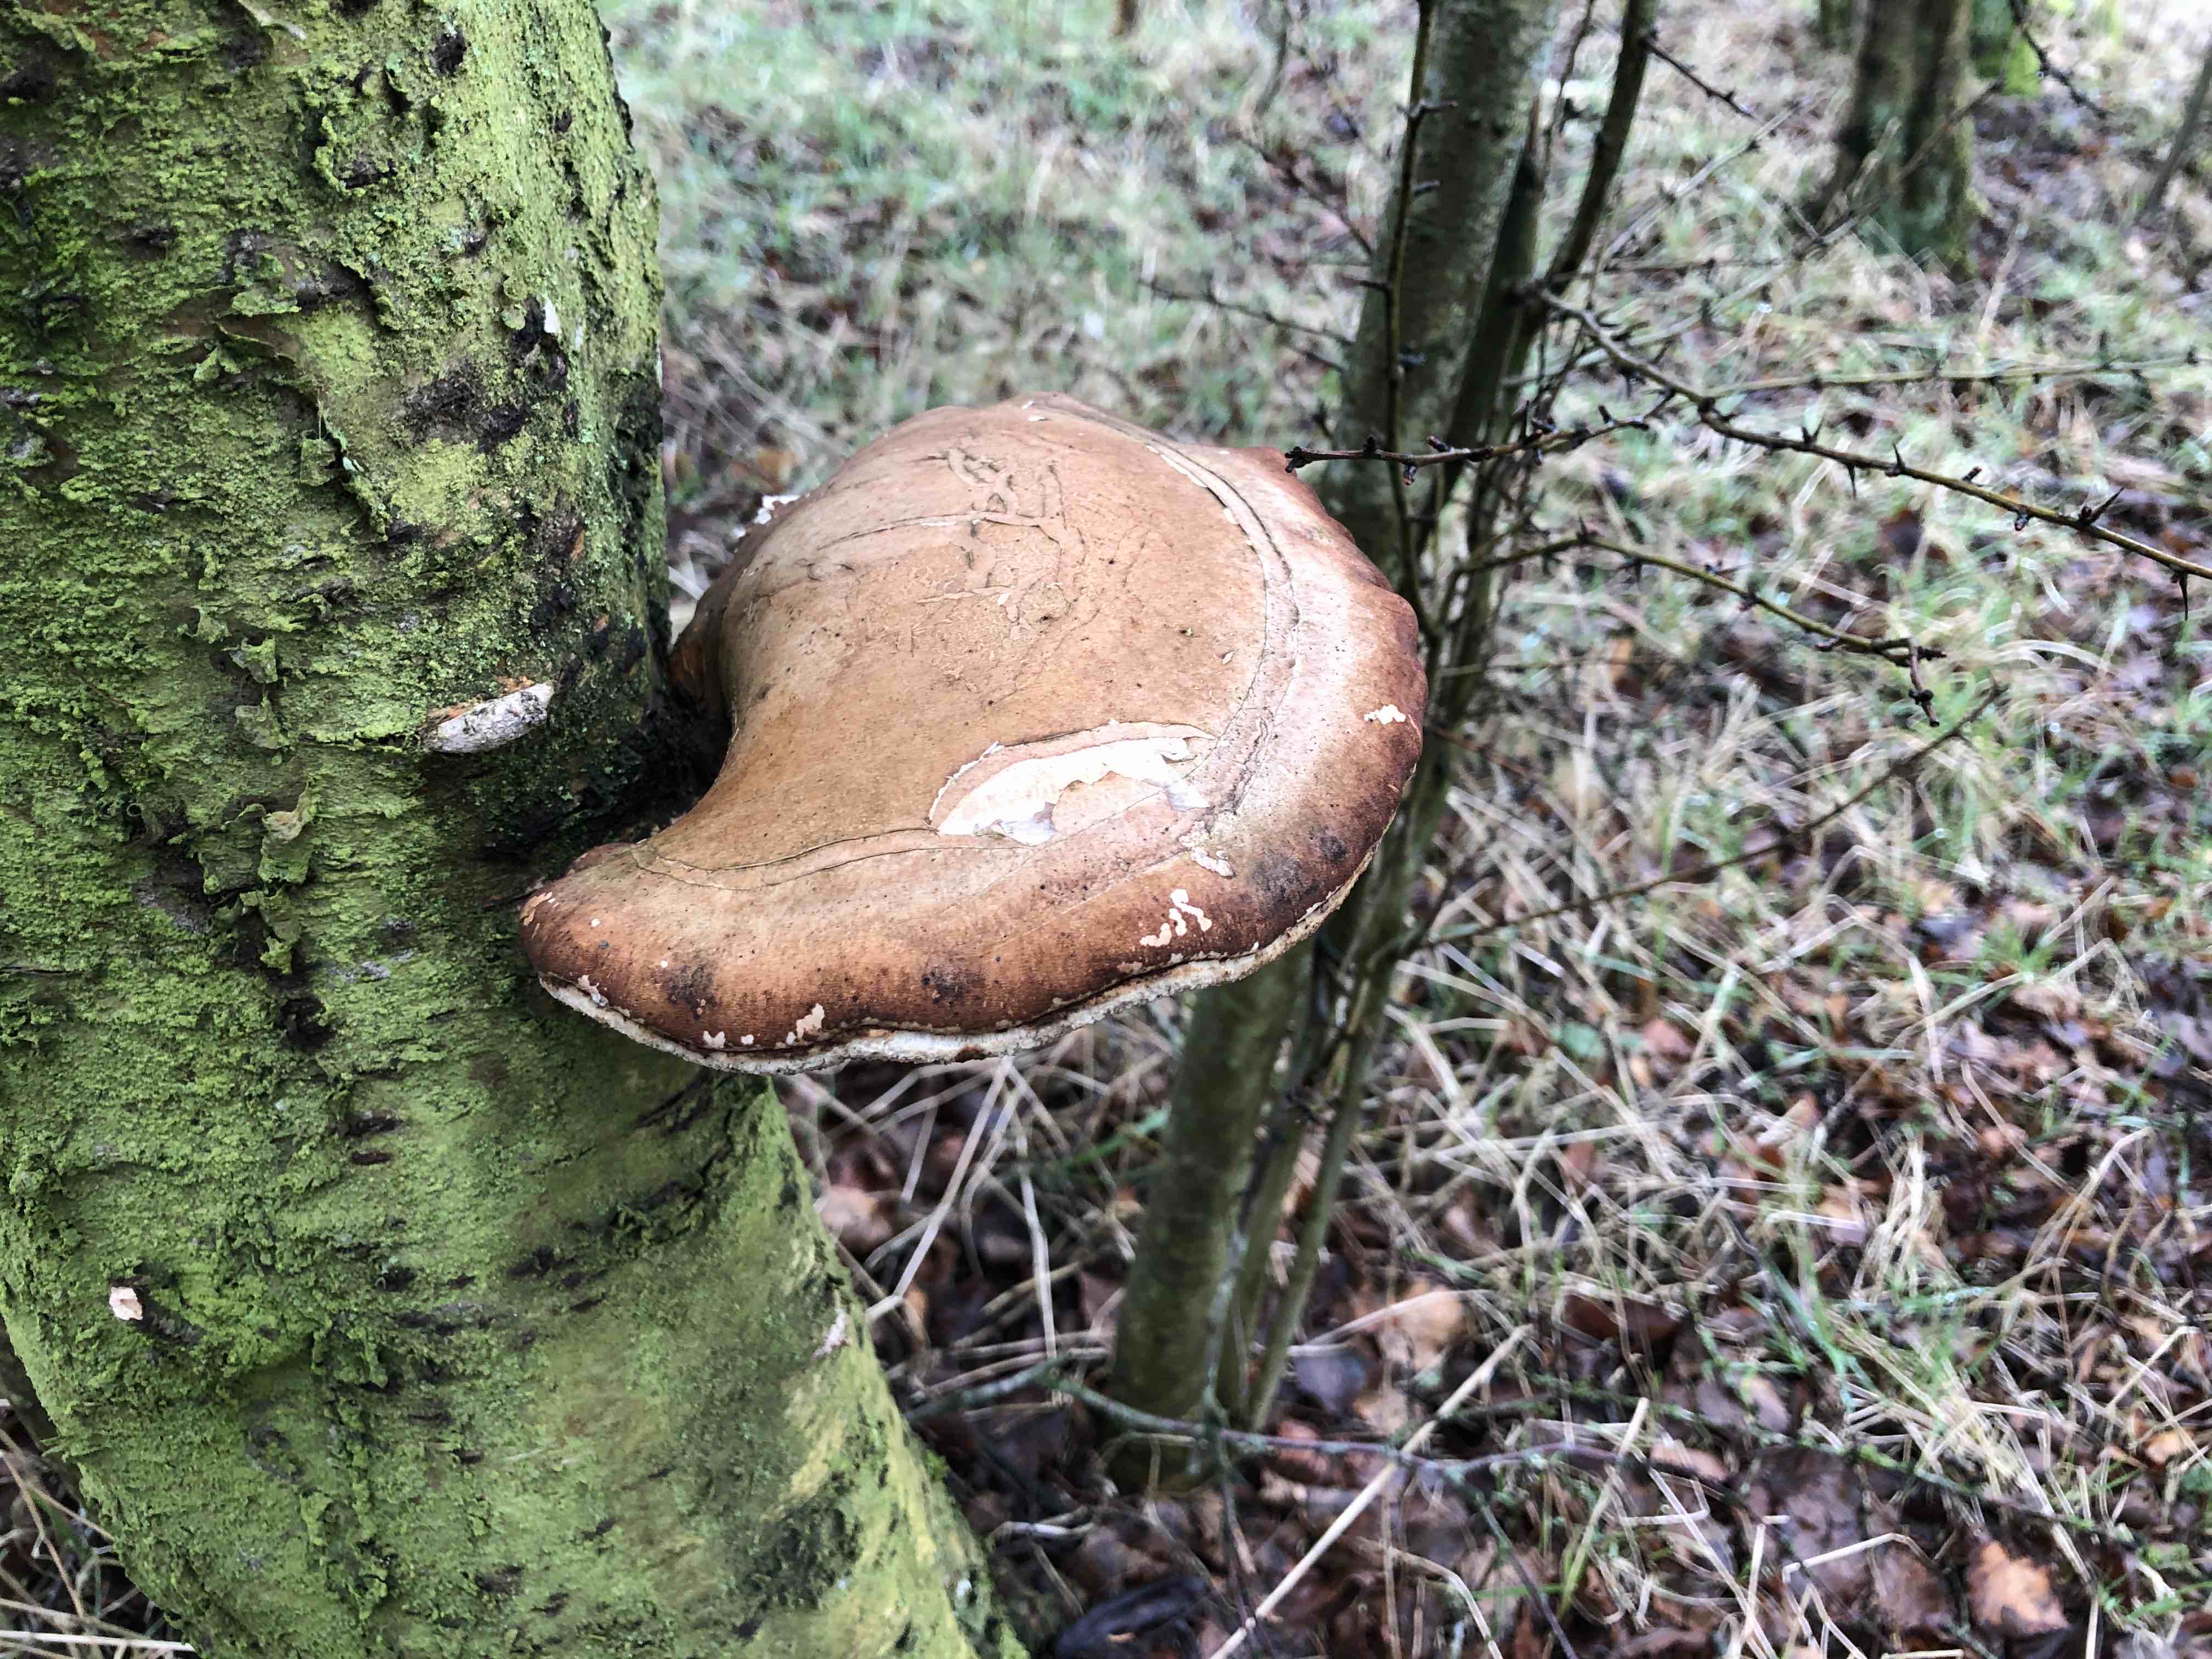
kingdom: Fungi
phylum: Basidiomycota
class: Agaricomycetes
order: Polyporales
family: Fomitopsidaceae
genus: Fomitopsis
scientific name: Fomitopsis betulina
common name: birkeporesvamp
